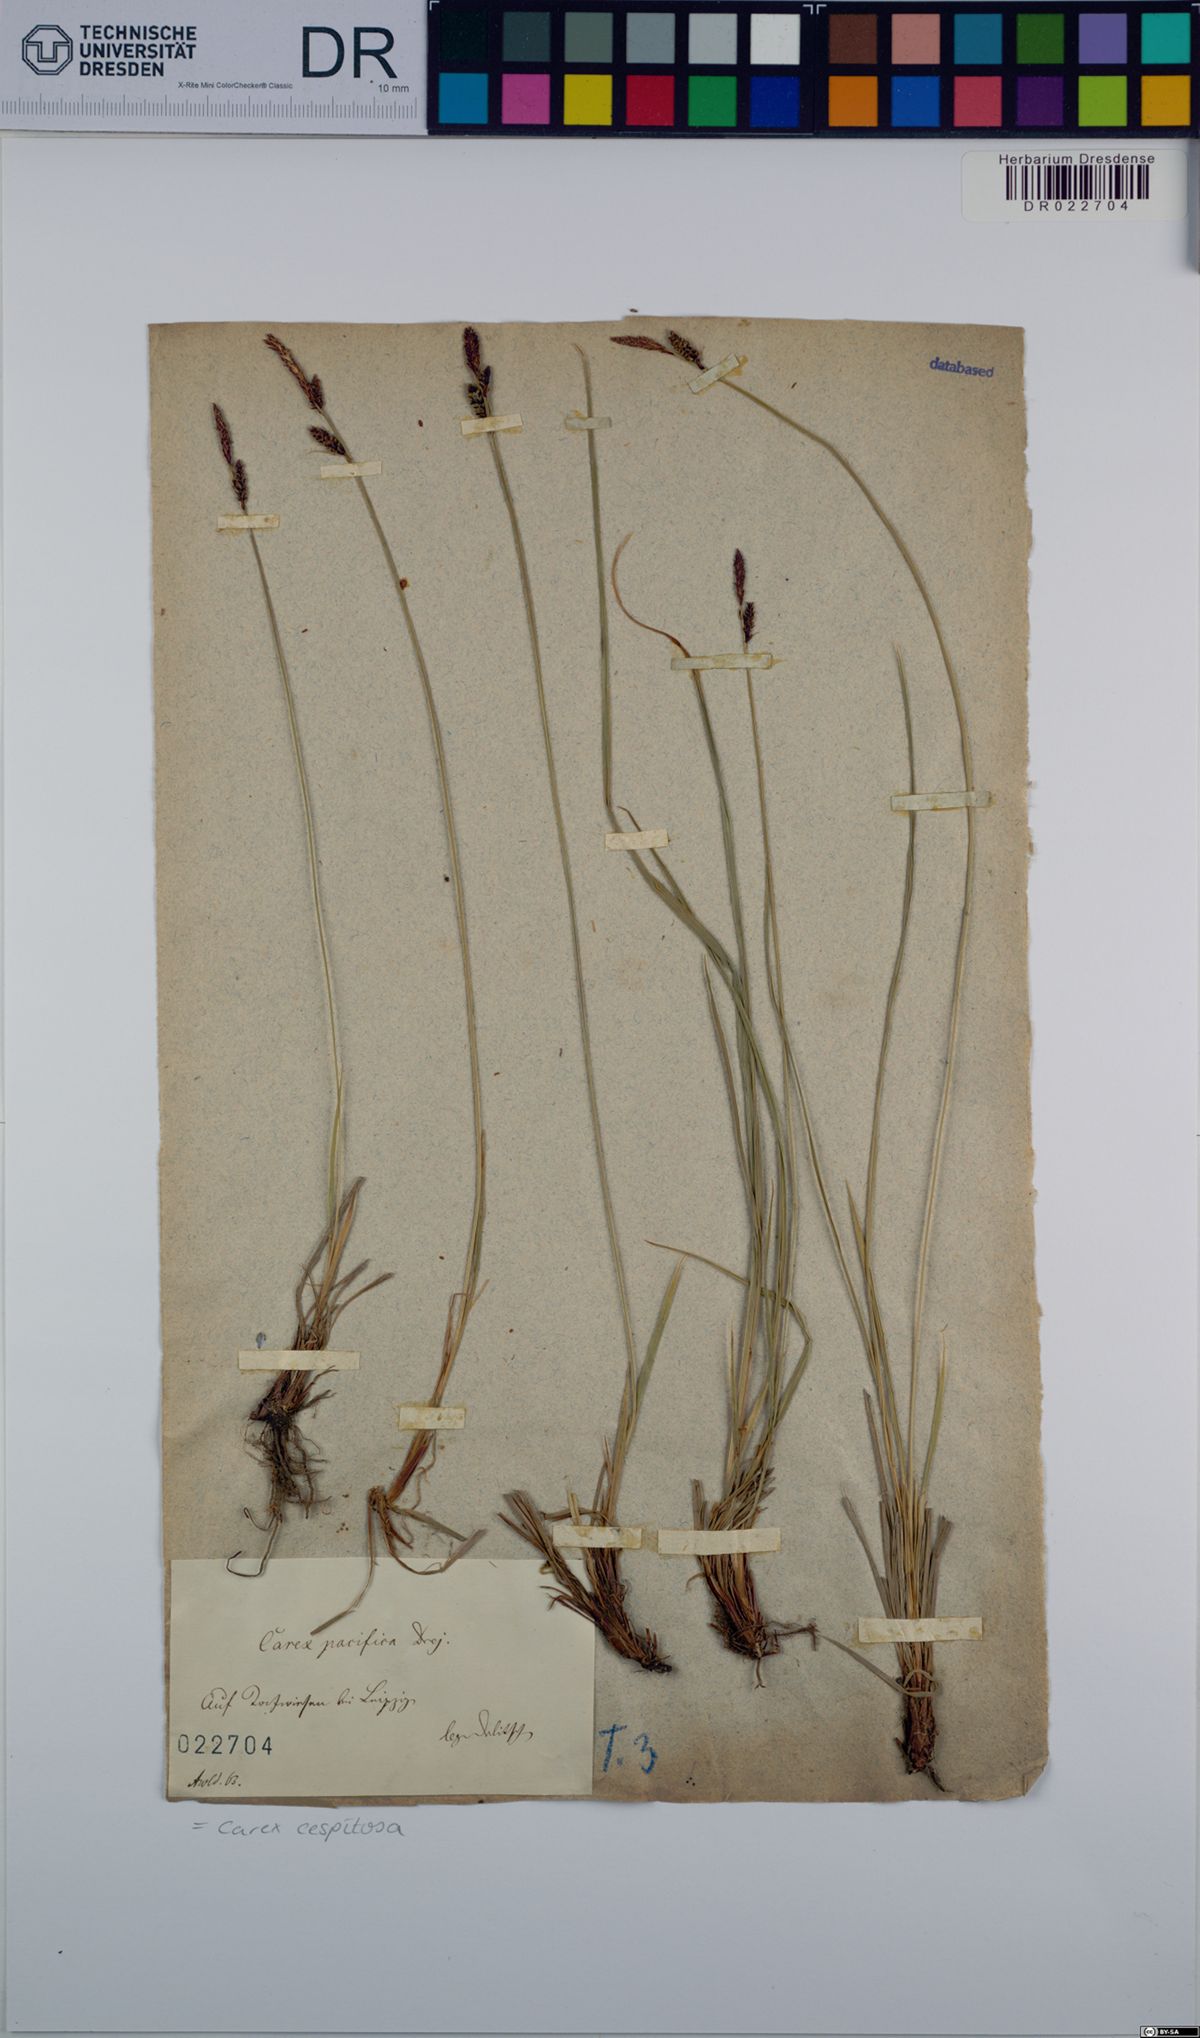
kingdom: Plantae
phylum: Tracheophyta
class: Liliopsida
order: Poales
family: Cyperaceae
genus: Carex
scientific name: Carex cespitosa
